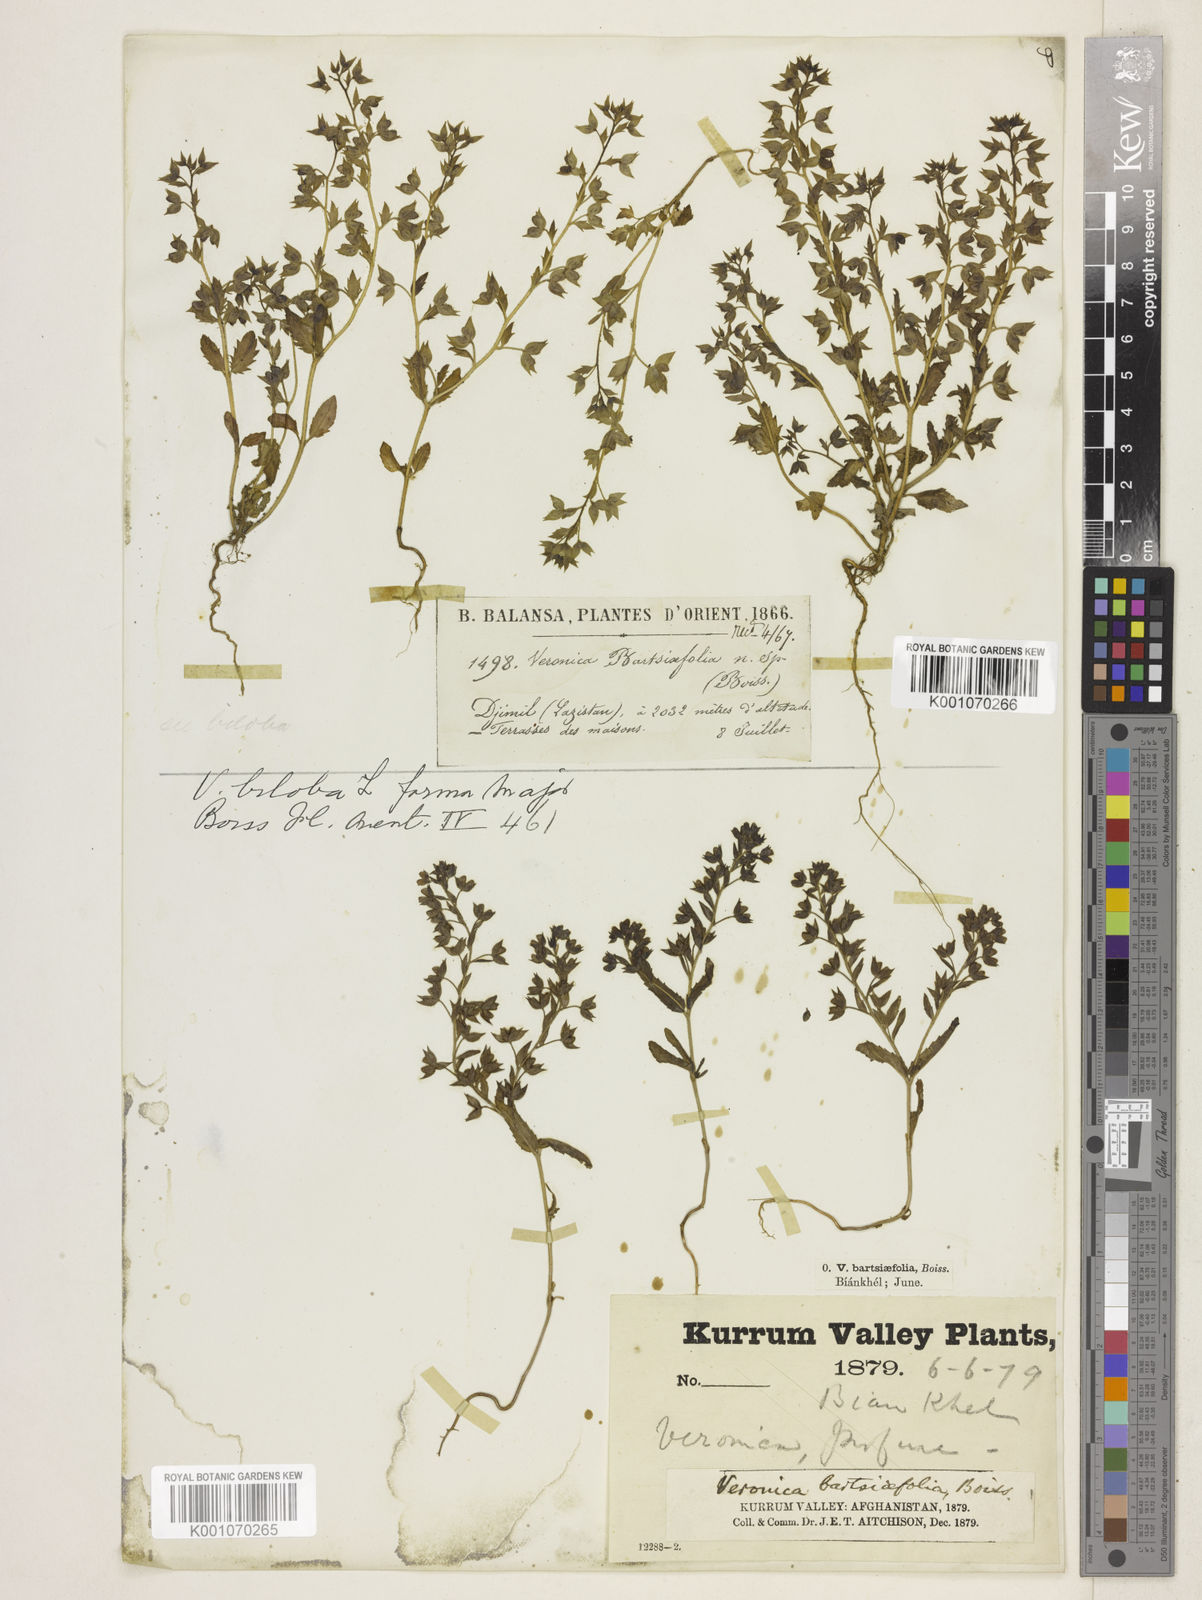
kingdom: Plantae
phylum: Tracheophyta
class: Magnoliopsida
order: Lamiales
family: Plantaginaceae
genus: Veronica
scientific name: Veronica biloba
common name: Twolobe speedwell
